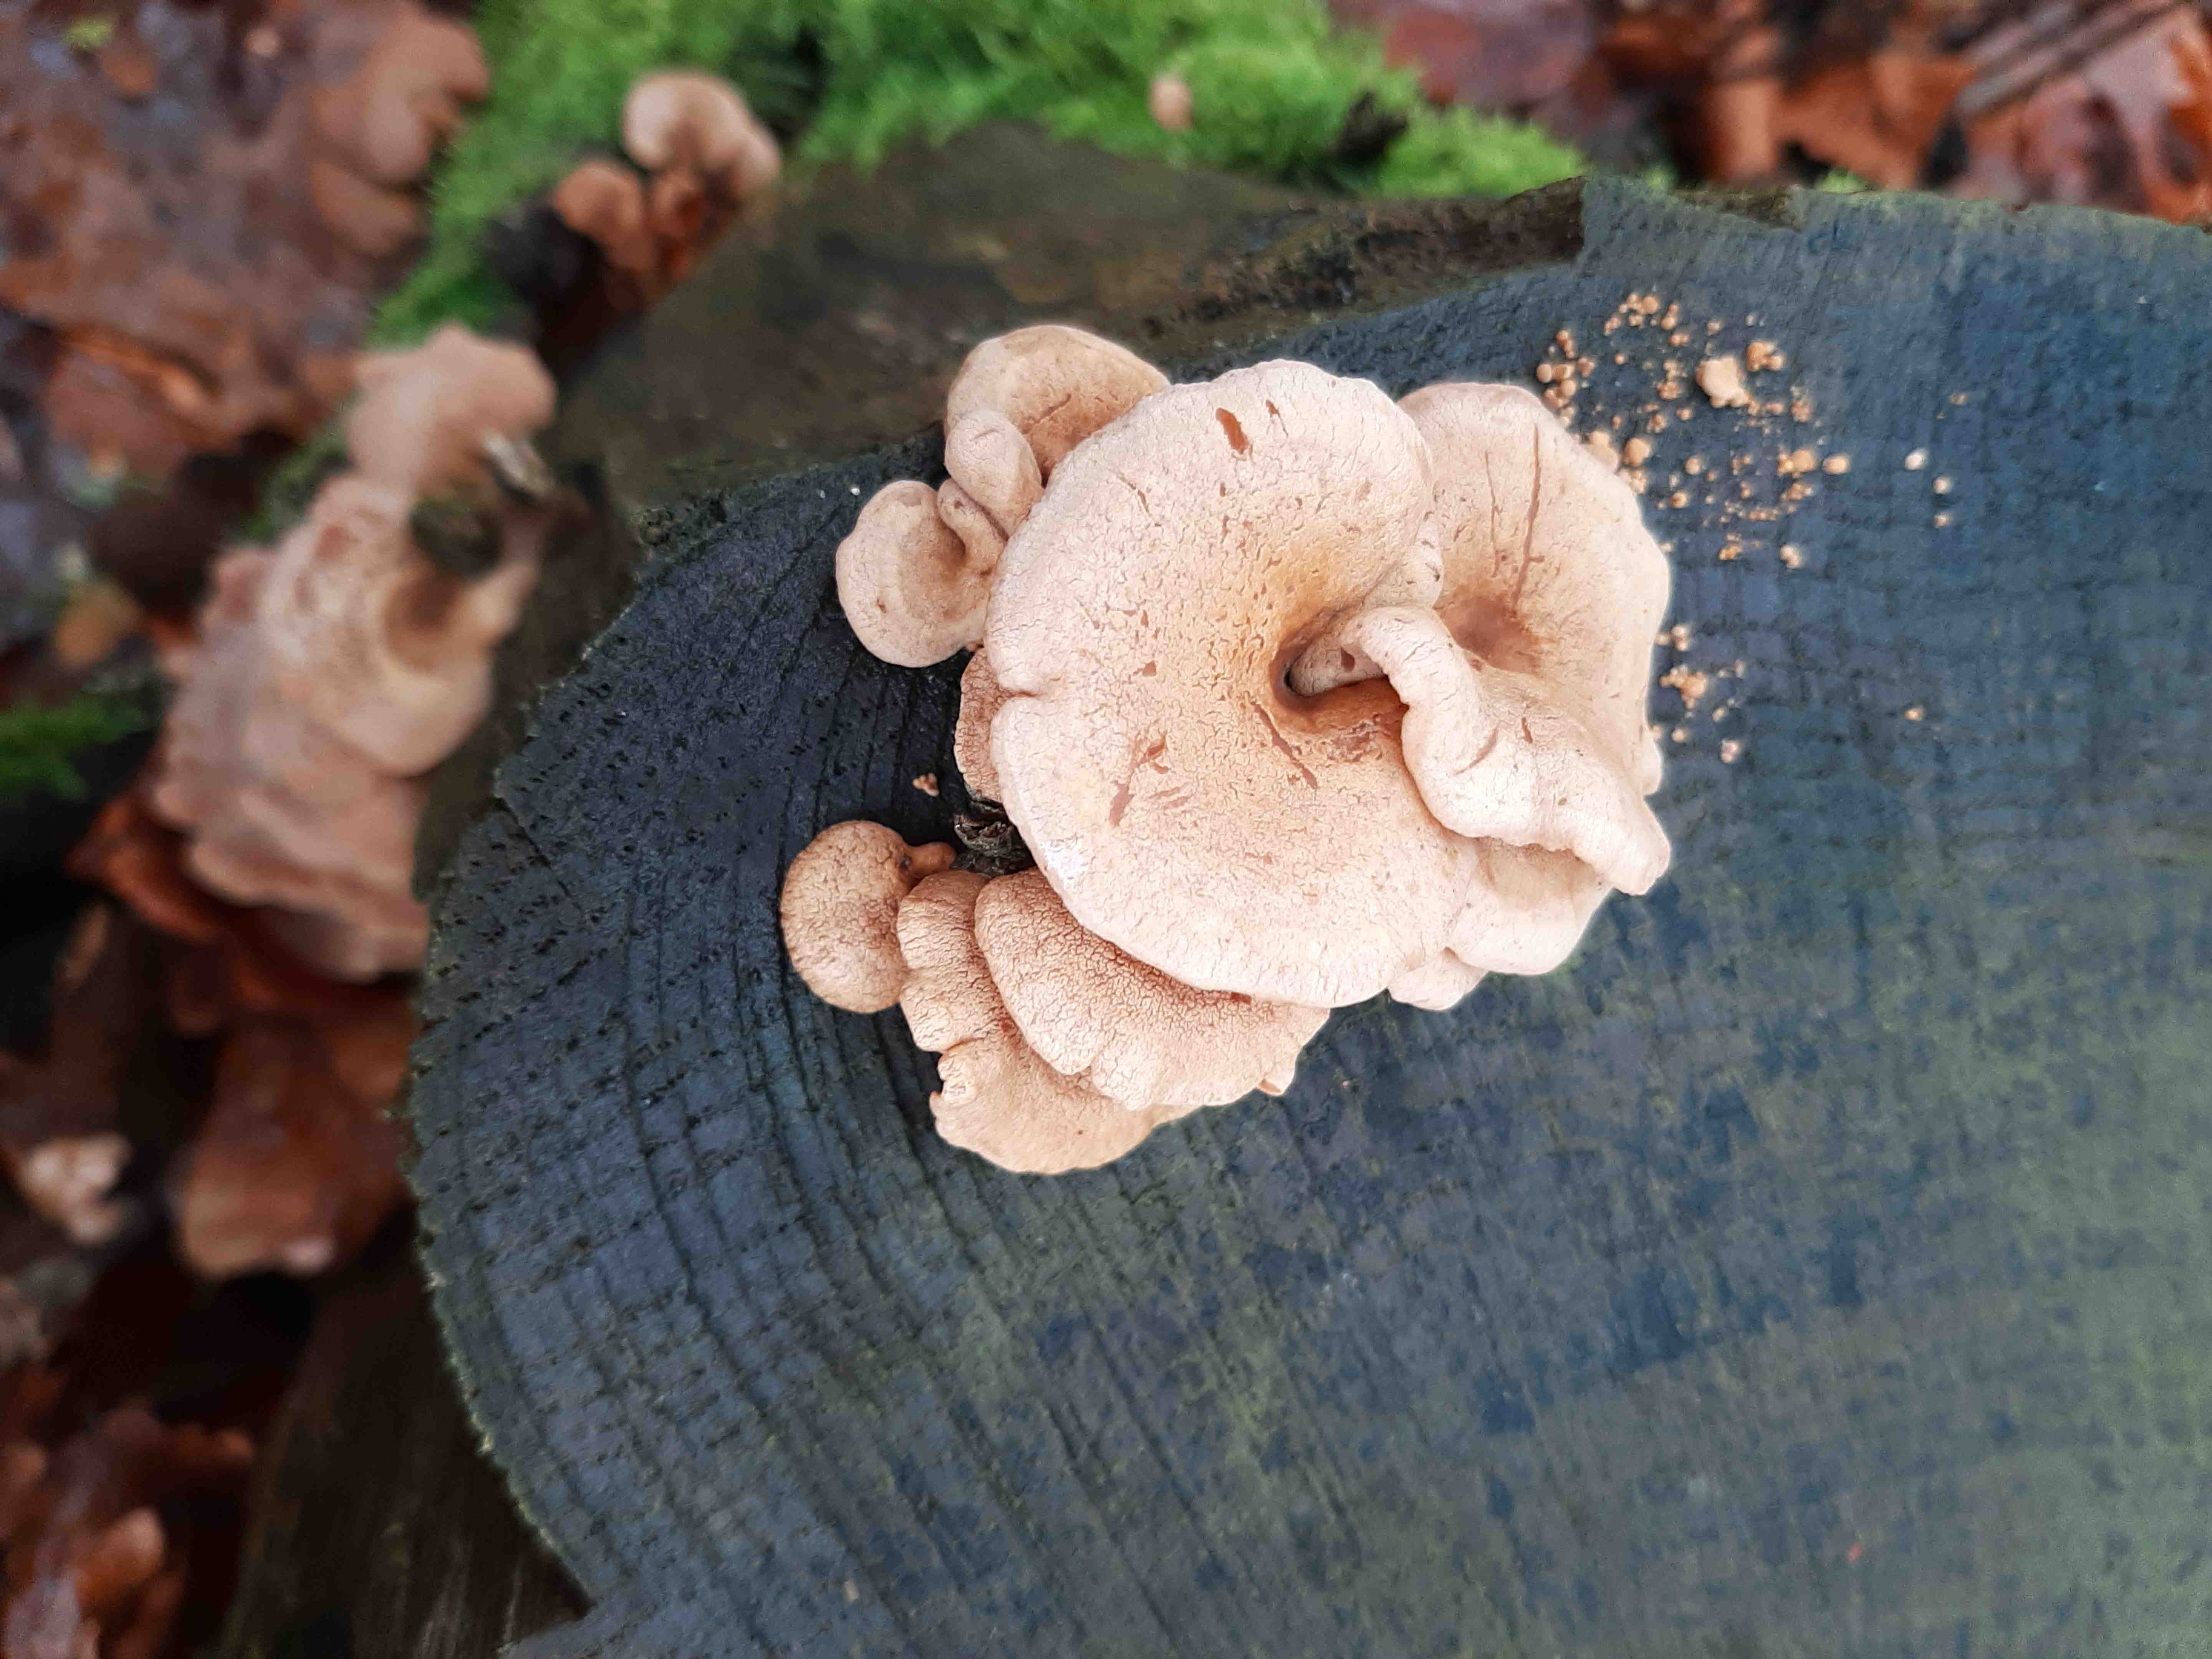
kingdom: Fungi
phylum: Basidiomycota
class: Agaricomycetes
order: Agaricales
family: Mycenaceae
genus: Panellus
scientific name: Panellus stipticus
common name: kliddet epaulethat
